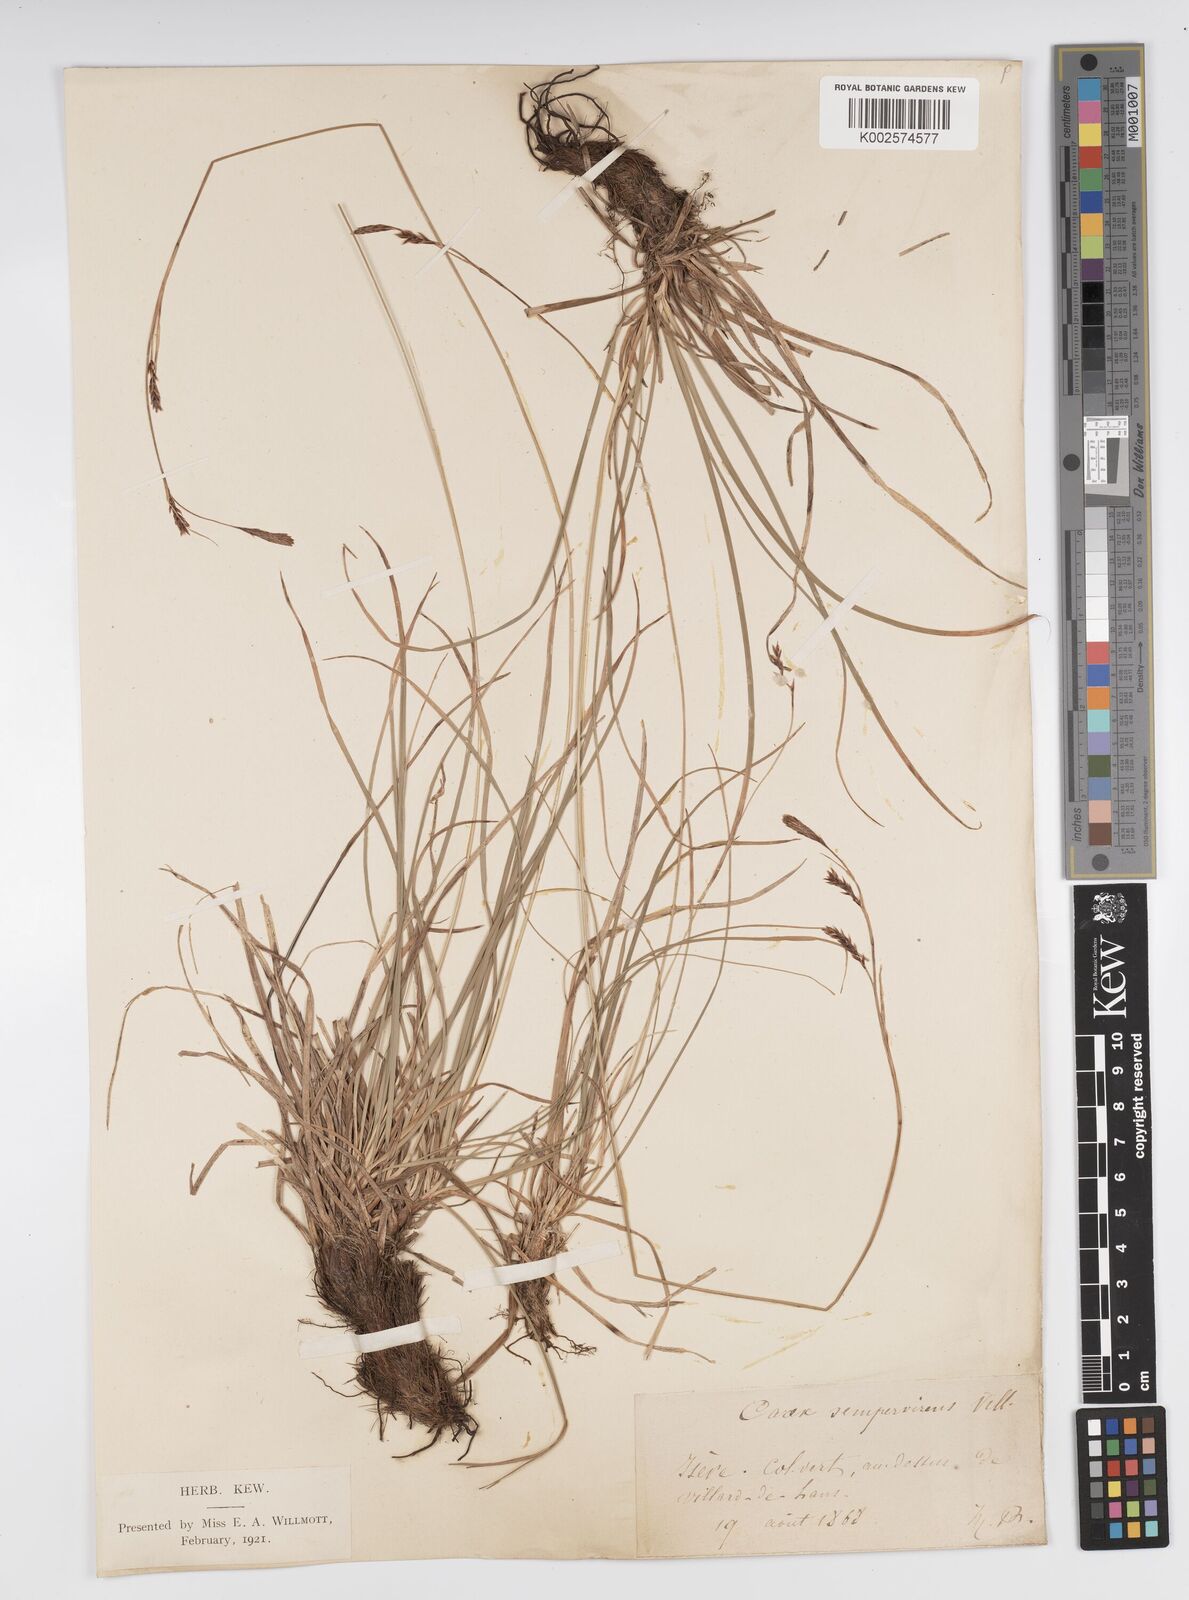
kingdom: Plantae
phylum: Tracheophyta
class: Liliopsida
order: Poales
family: Cyperaceae
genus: Carex
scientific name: Carex sempervirens
